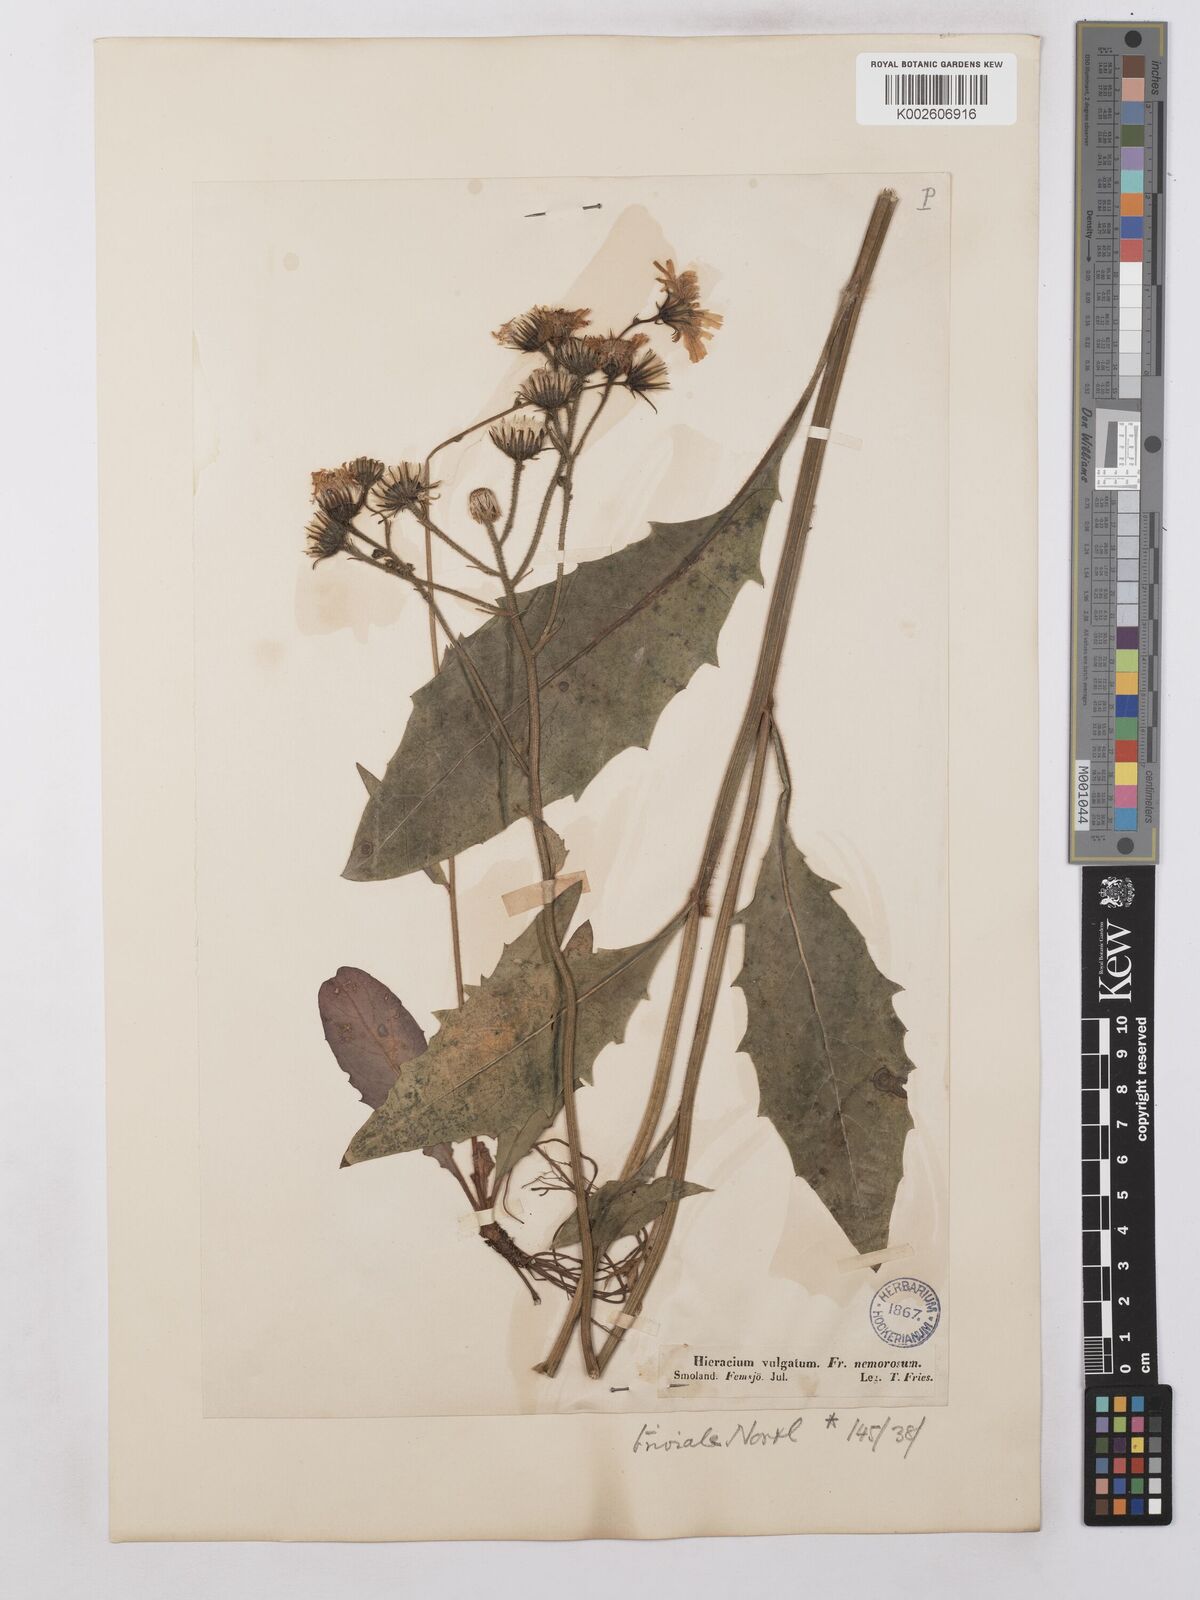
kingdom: Plantae
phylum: Tracheophyta
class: Magnoliopsida
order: Asterales
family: Asteraceae
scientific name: Asteraceae
